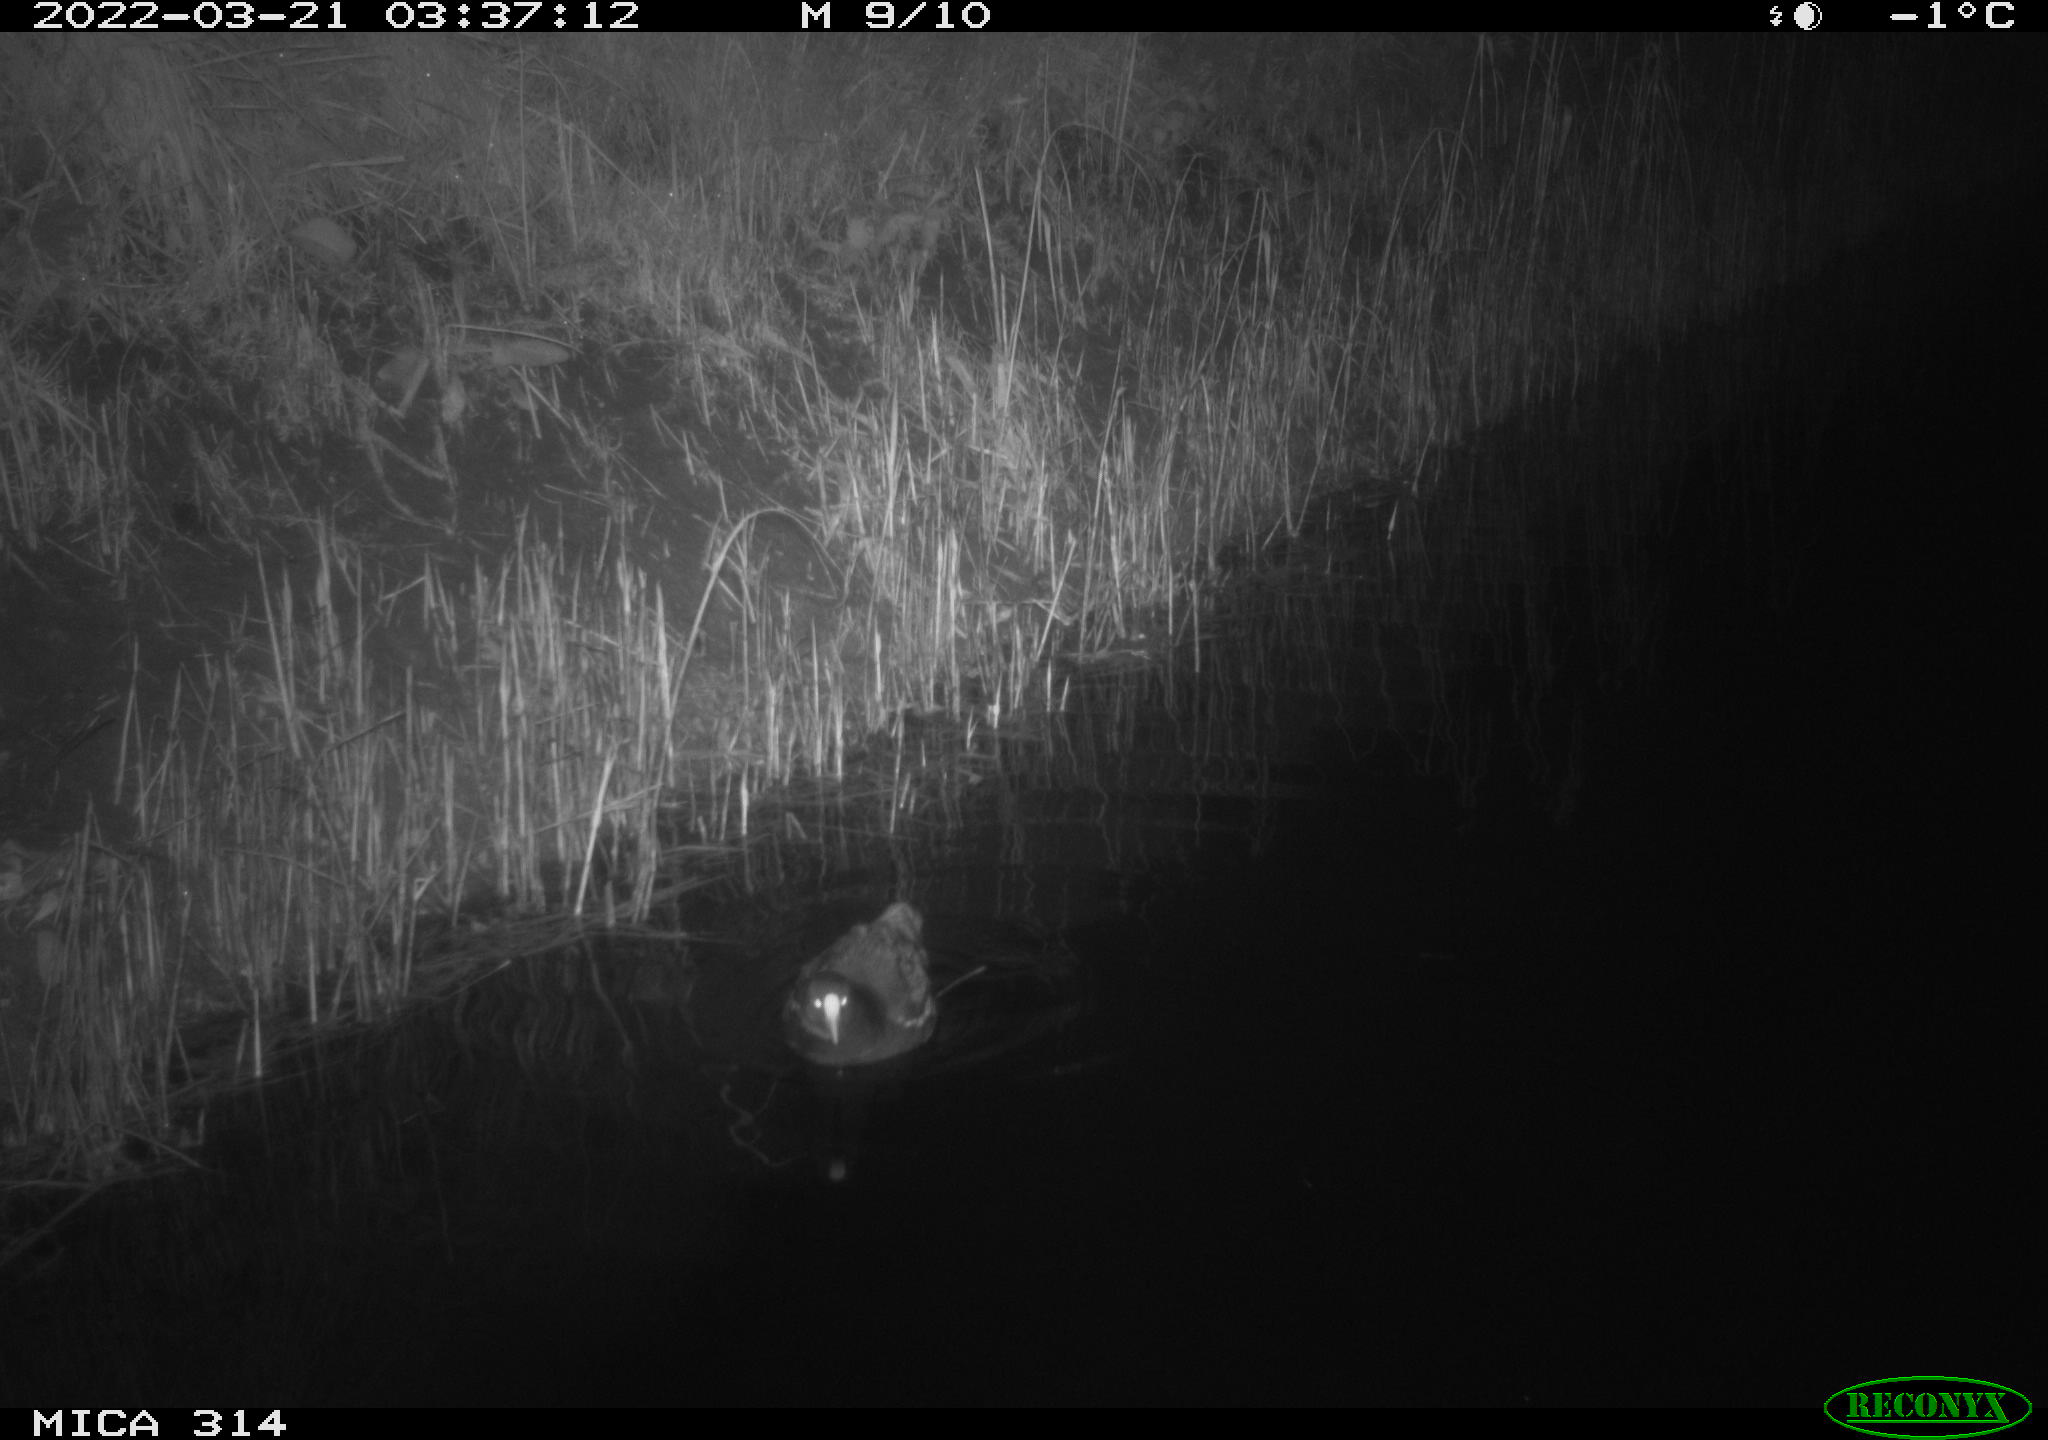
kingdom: Animalia
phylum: Chordata
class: Aves
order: Gruiformes
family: Rallidae
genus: Gallinula
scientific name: Gallinula chloropus
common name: Common moorhen
